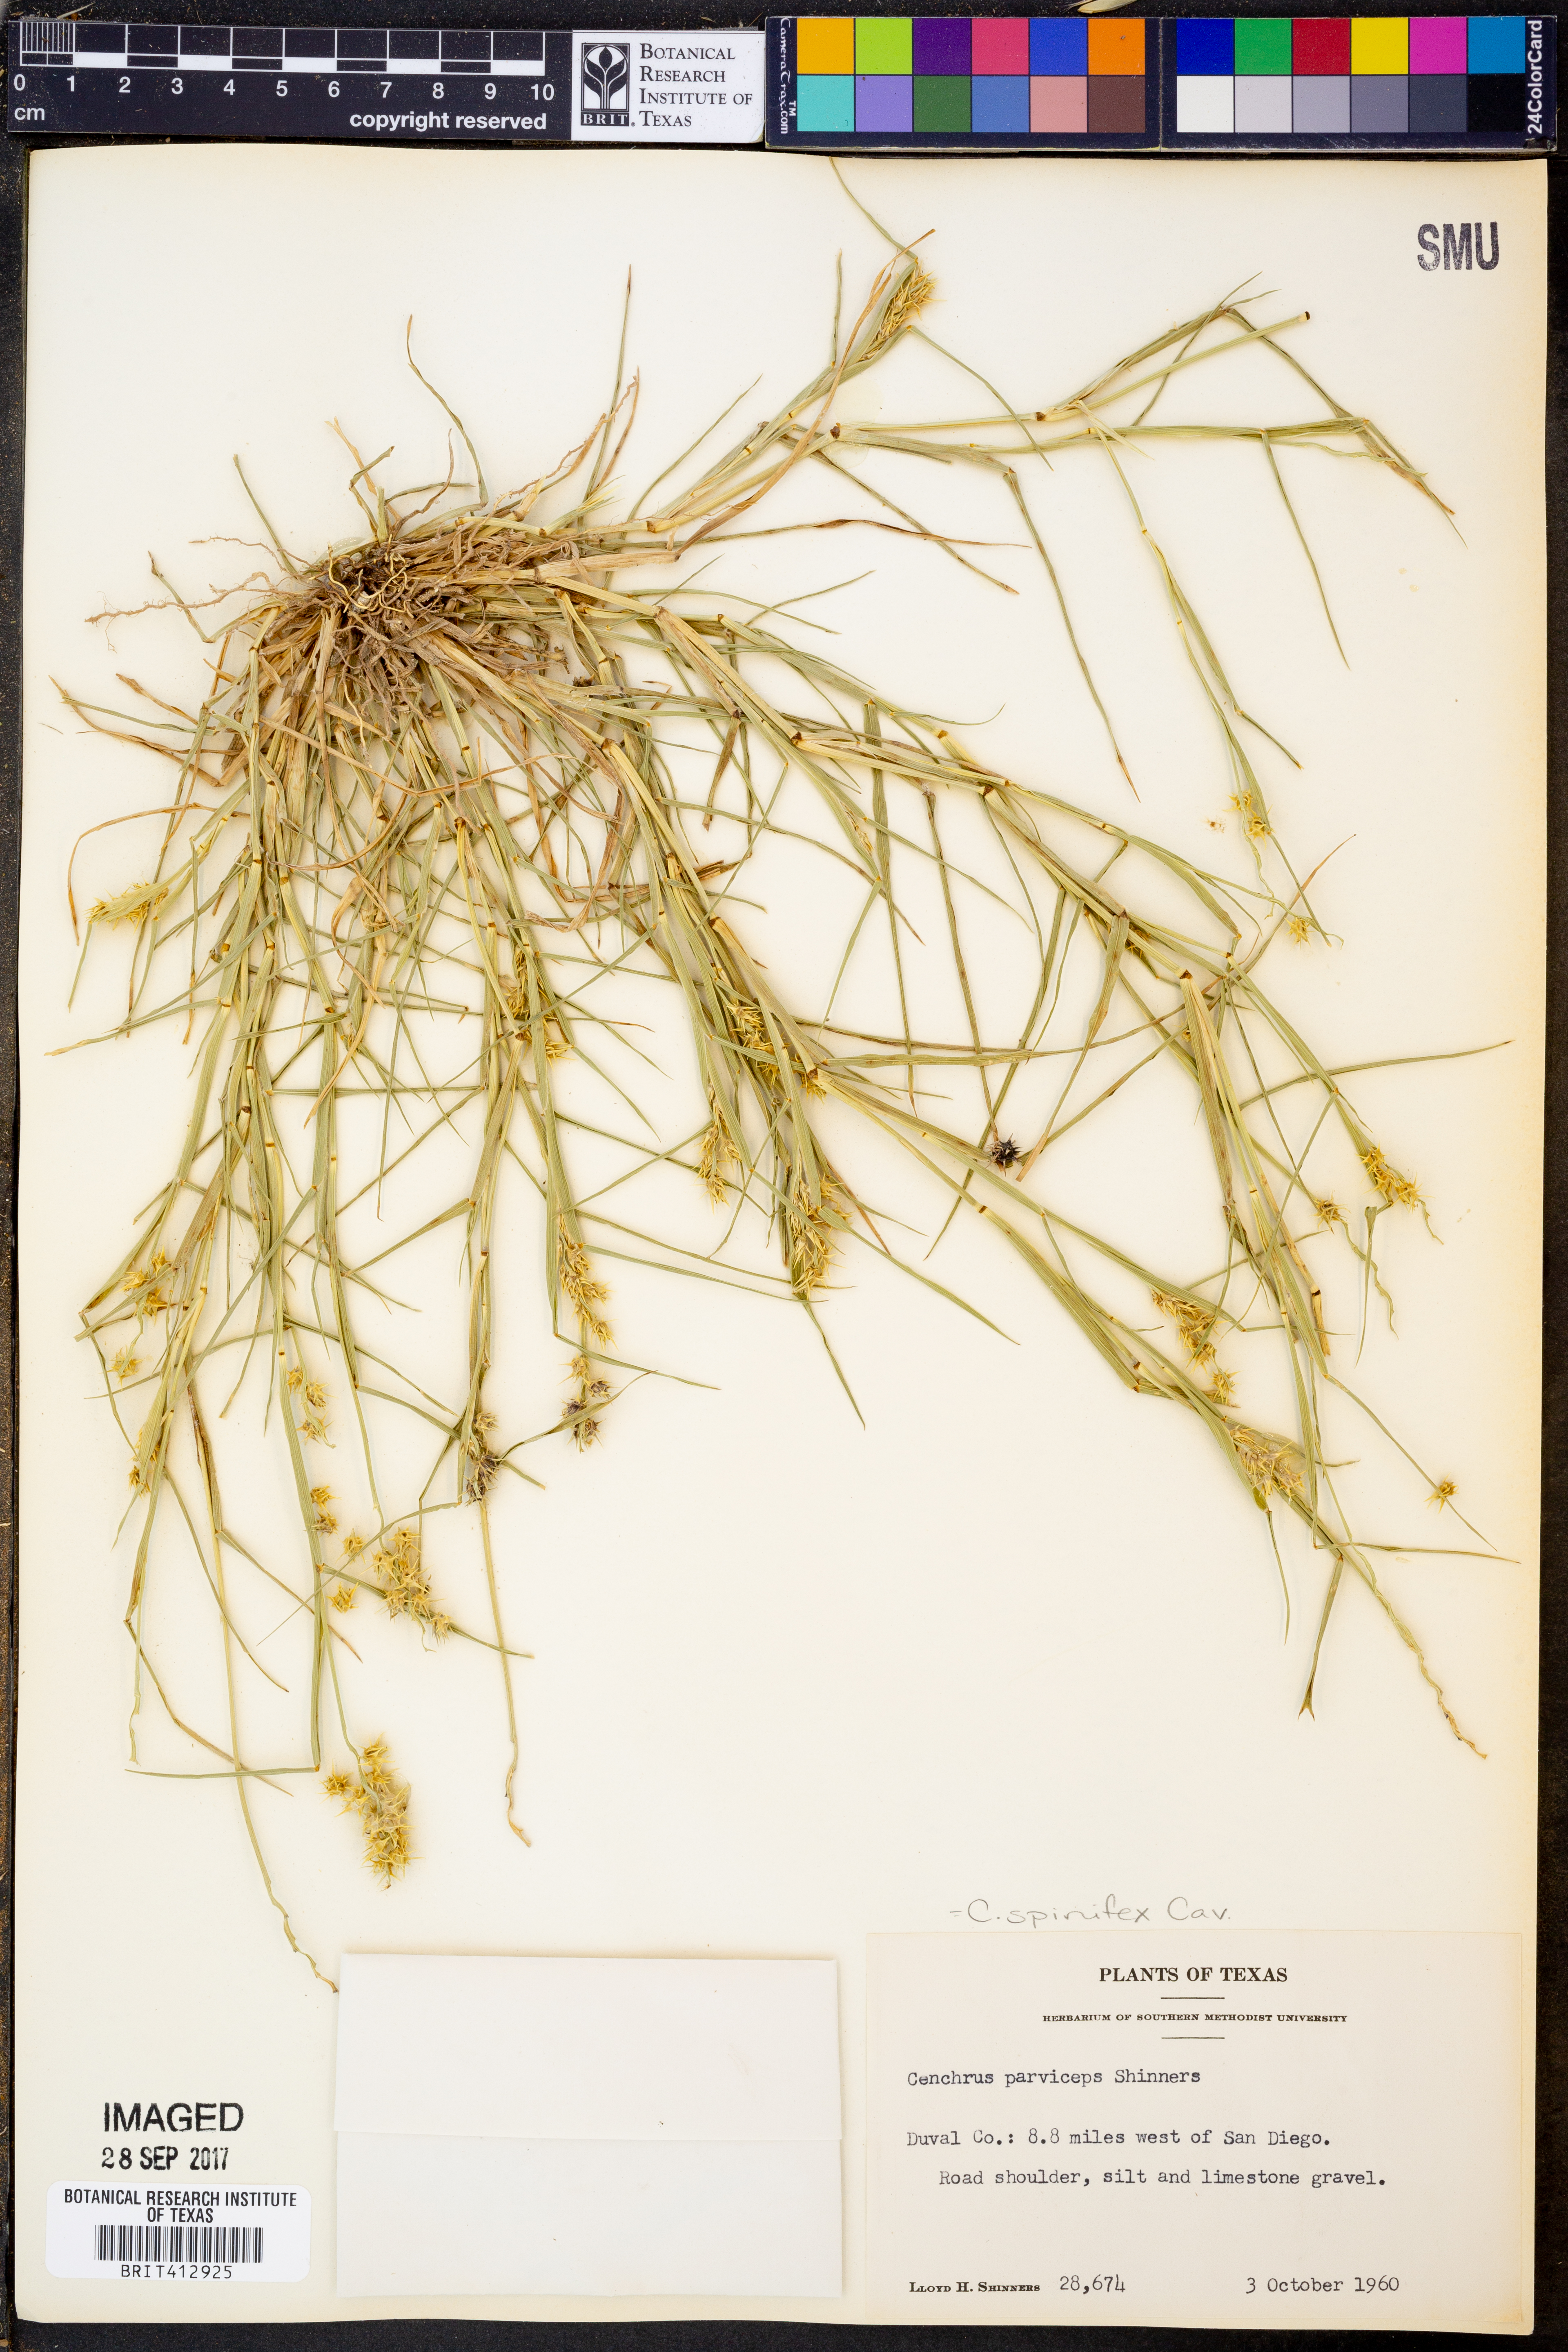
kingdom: Plantae
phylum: Tracheophyta
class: Liliopsida
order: Poales
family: Poaceae
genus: Cenchrus
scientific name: Cenchrus spinifex
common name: Coast sandbur
